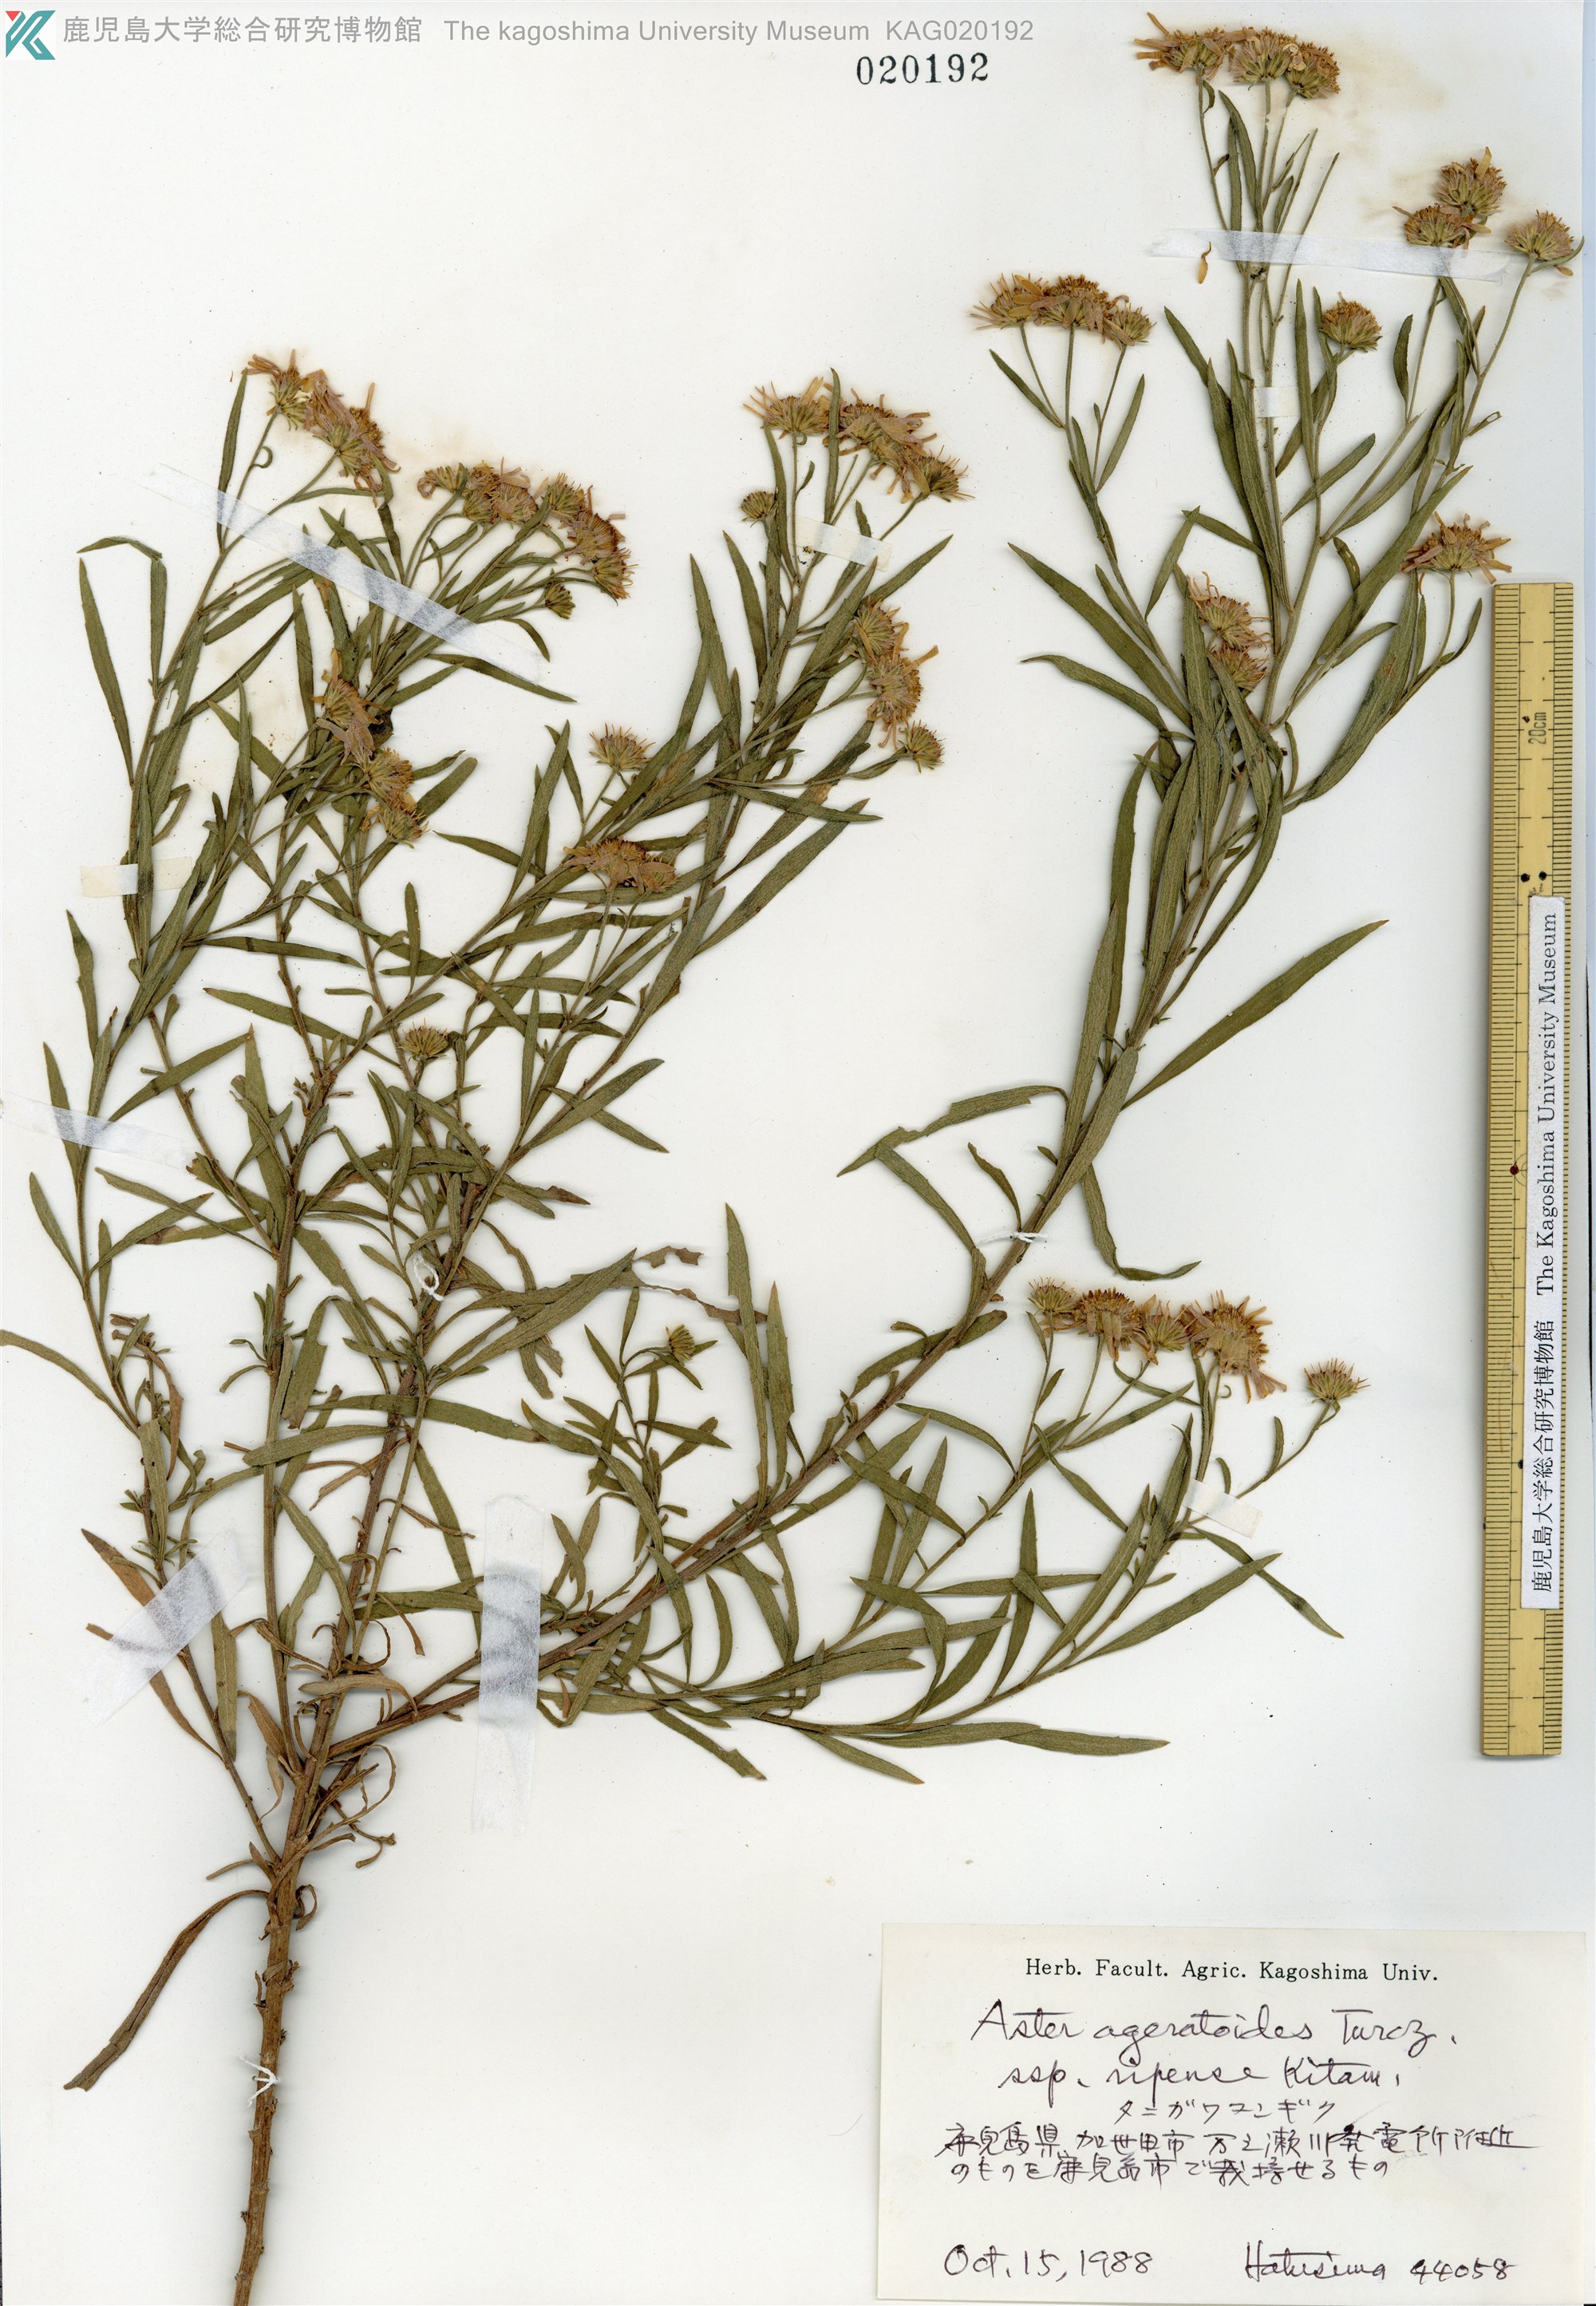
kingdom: Plantae
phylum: Tracheophyta
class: Magnoliopsida
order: Asterales
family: Asteraceae
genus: Aster
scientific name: Aster microcephalus
